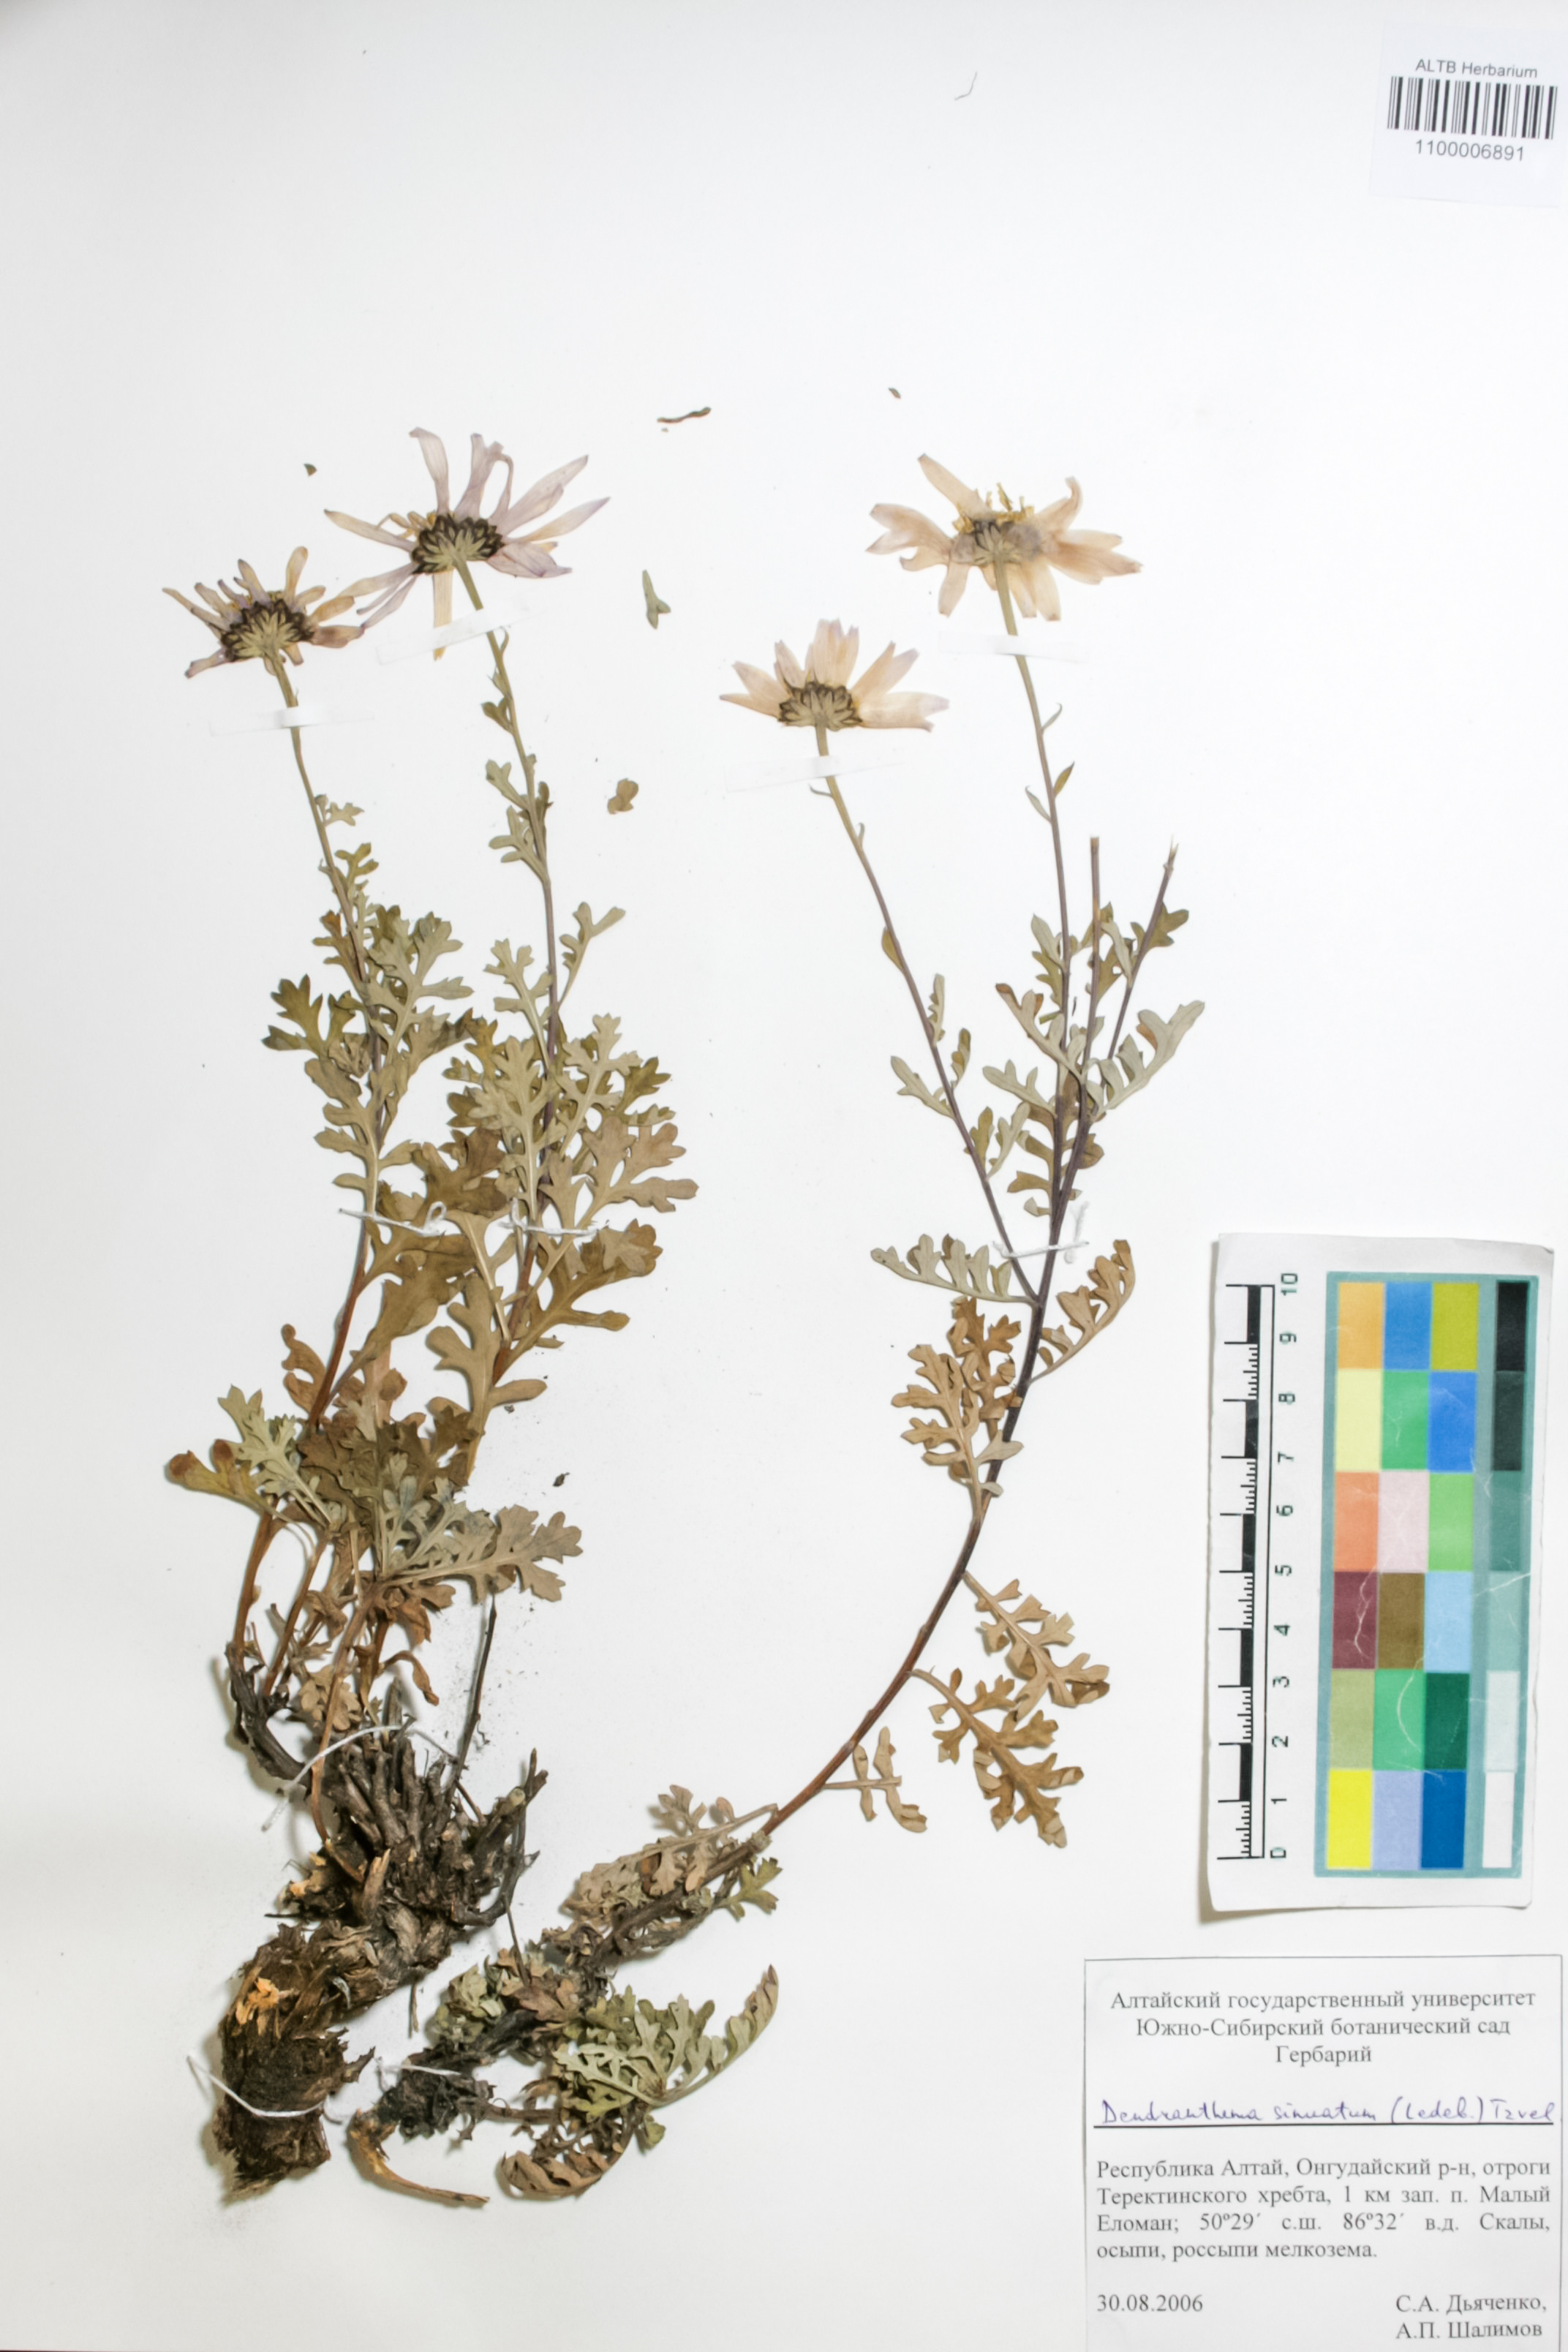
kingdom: Plantae
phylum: Tracheophyta
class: Magnoliopsida
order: Asterales
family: Asteraceae
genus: Chrysanthemum
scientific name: Chrysanthemum sinuatum
